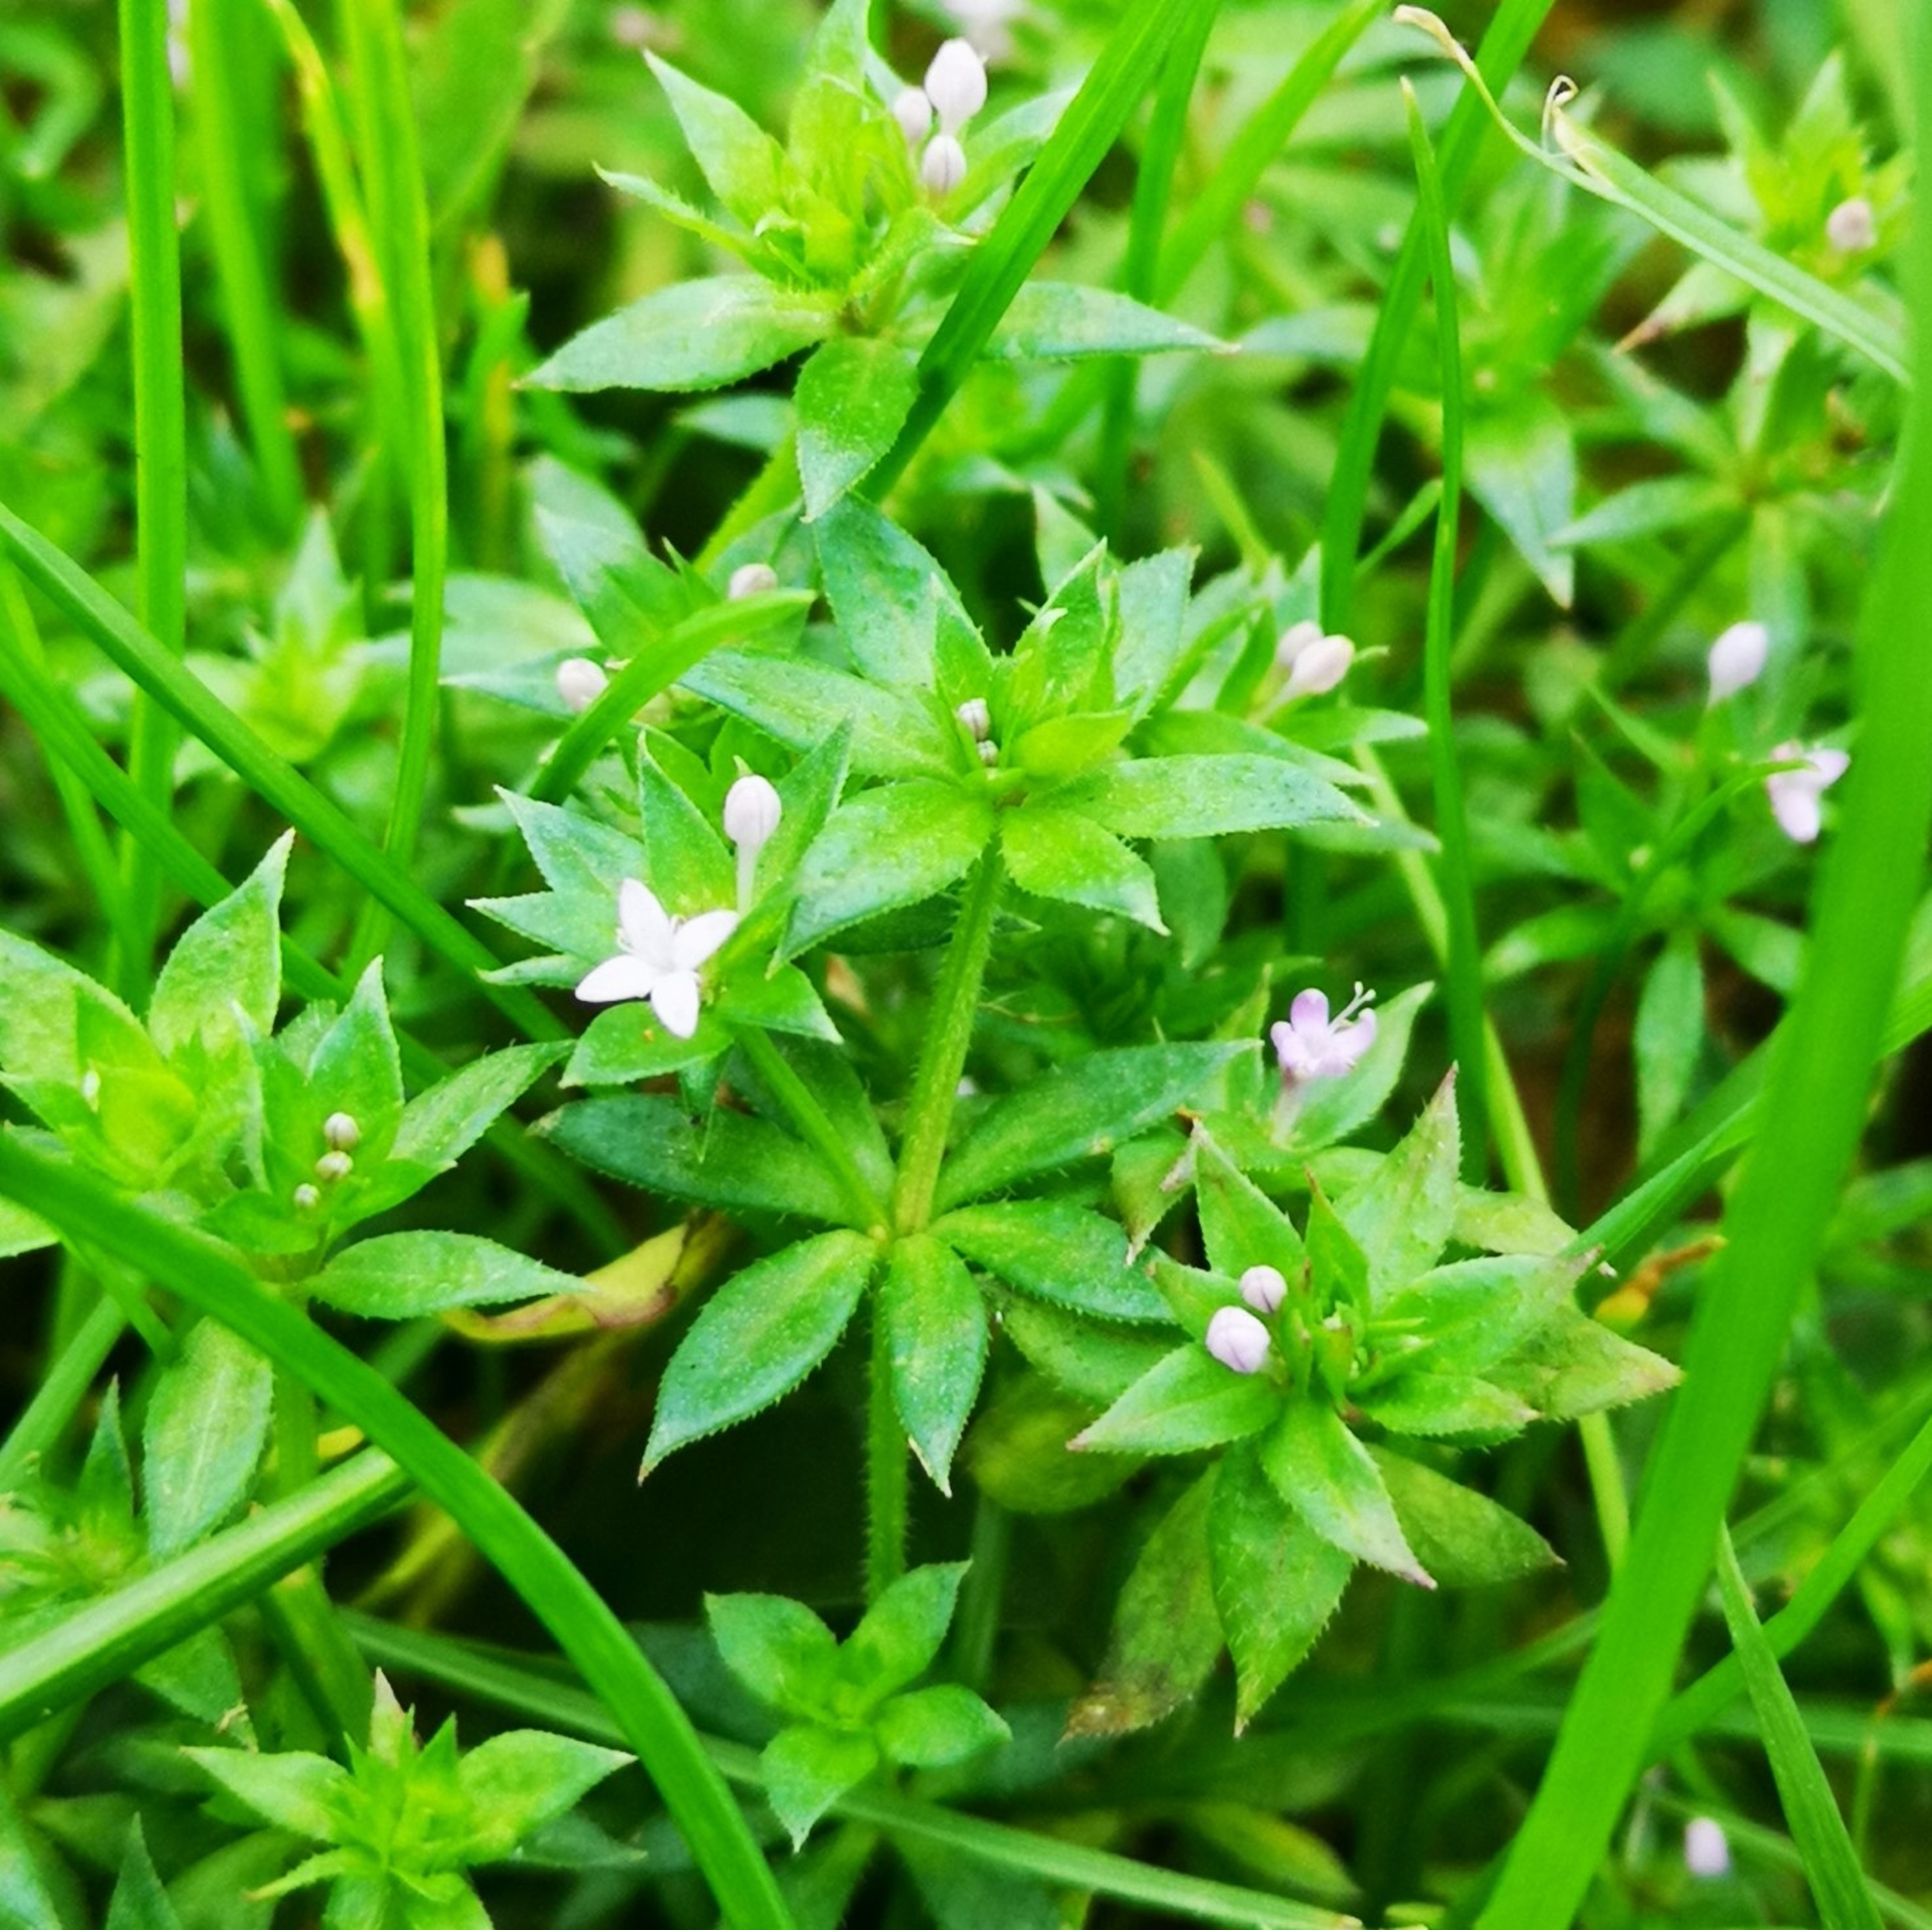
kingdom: Plantae
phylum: Tracheophyta
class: Magnoliopsida
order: Gentianales
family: Rubiaceae
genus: Sherardia
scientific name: Sherardia arvensis
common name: Blåstjerne
